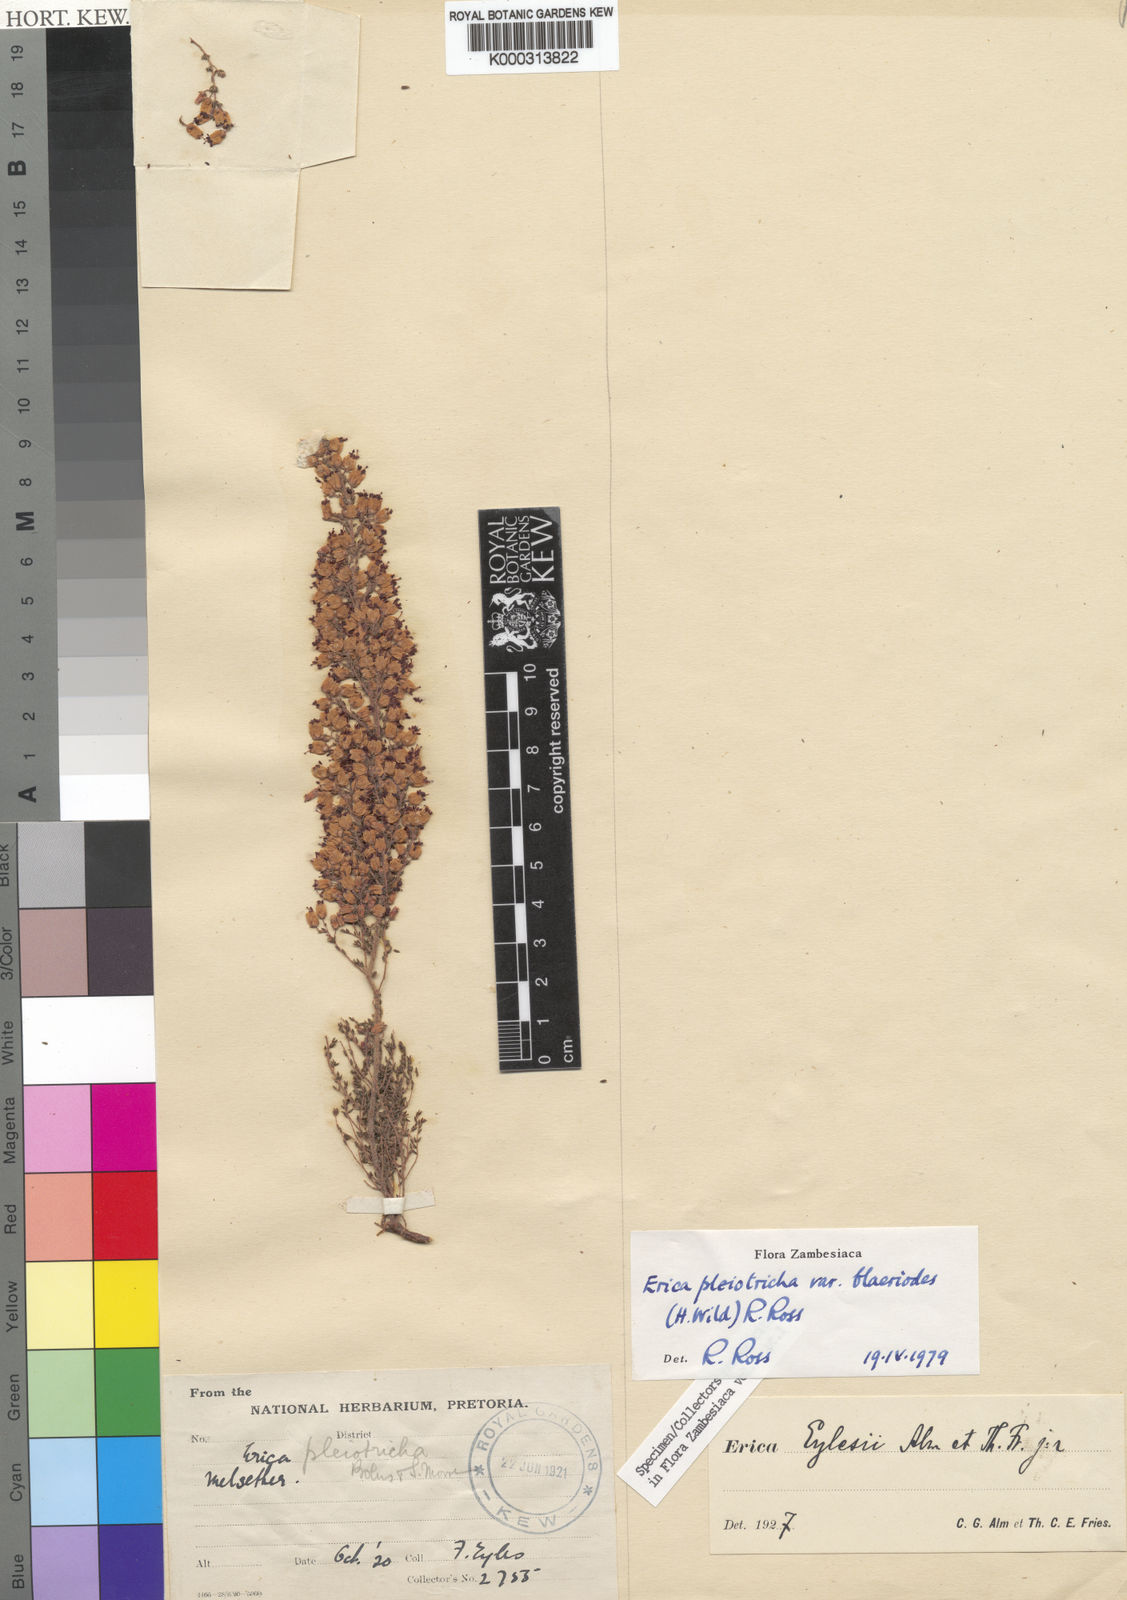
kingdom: Plantae
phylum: Tracheophyta
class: Magnoliopsida
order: Ericales
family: Ericaceae
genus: Erica
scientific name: Erica pleiotricha
